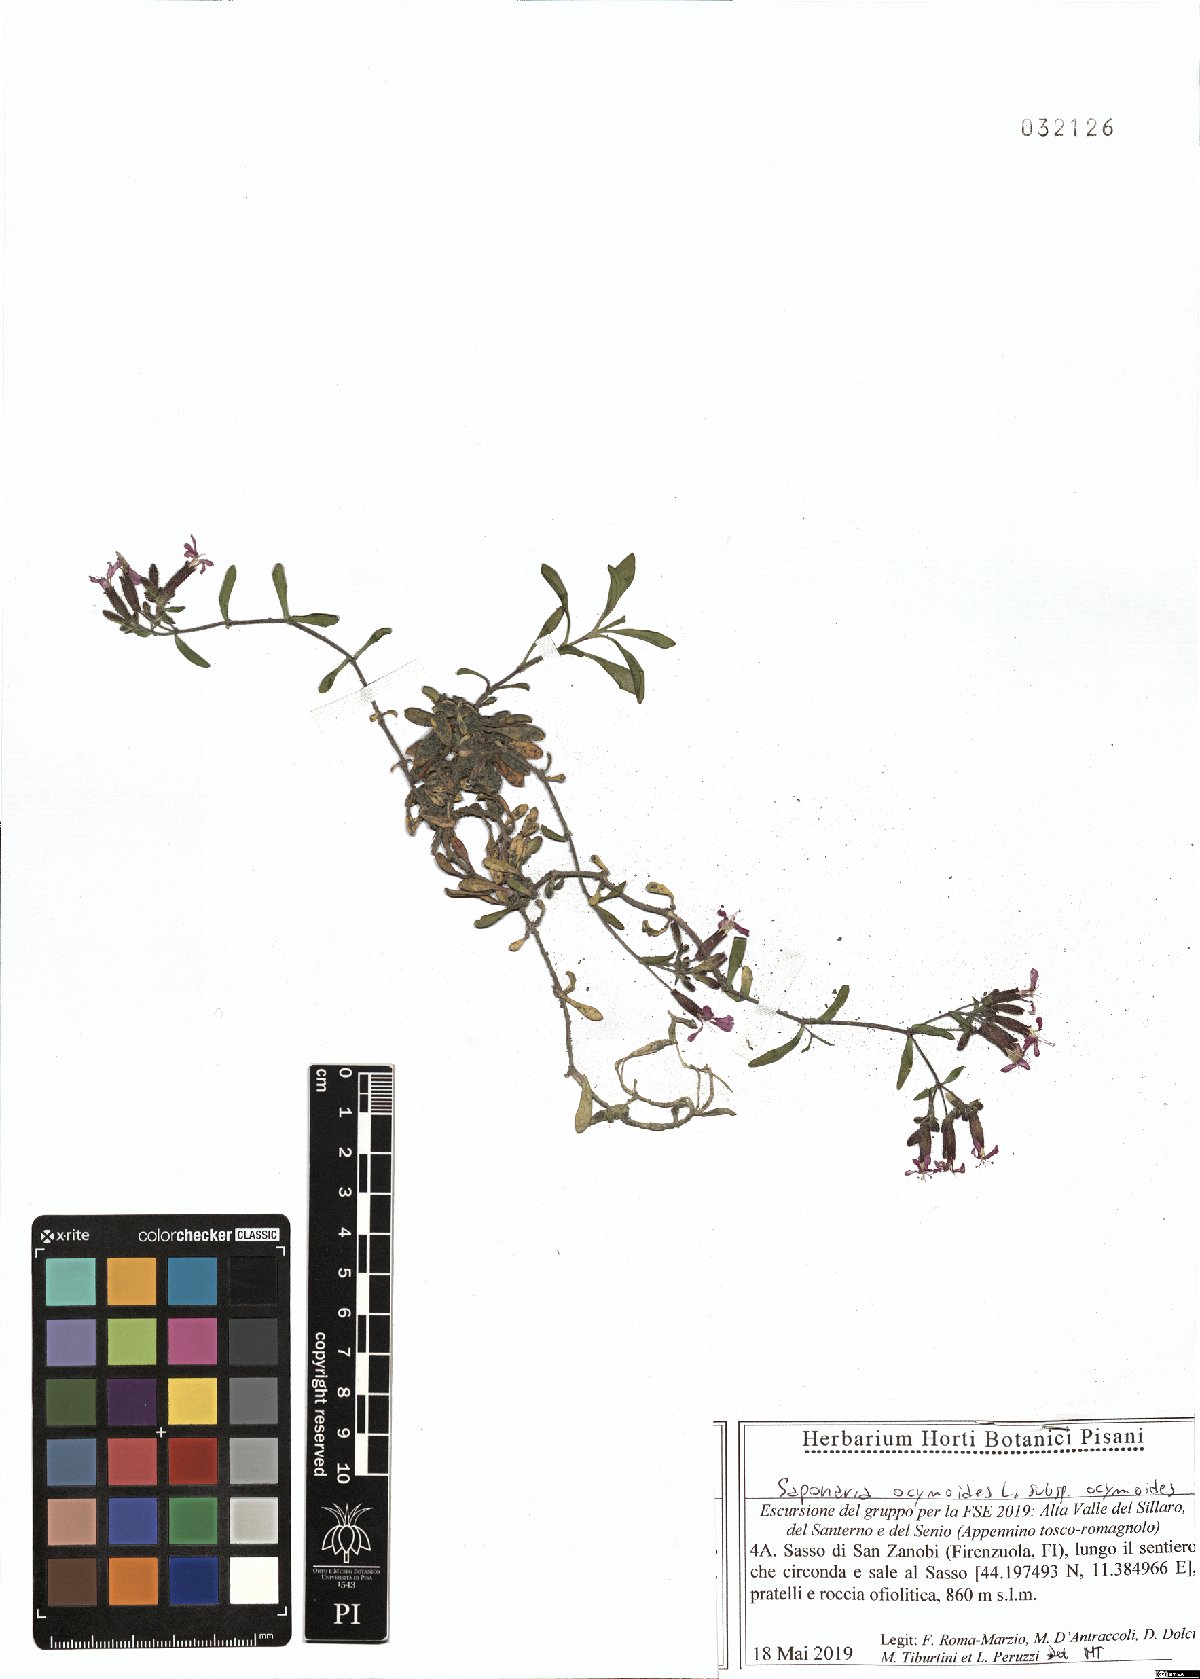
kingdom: Plantae
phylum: Tracheophyta
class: Magnoliopsida
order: Caryophyllales
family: Caryophyllaceae
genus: Saponaria
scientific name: Saponaria ocymoides
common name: Rock soapwort
